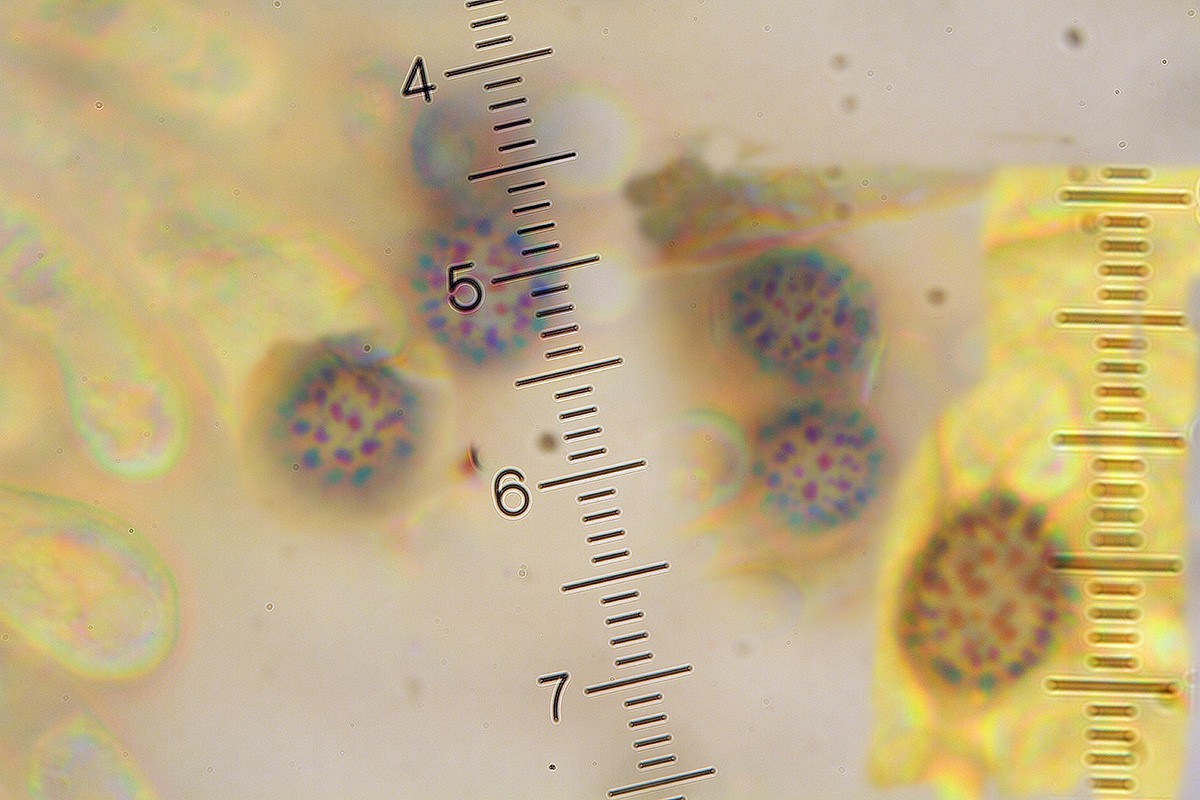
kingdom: Fungi
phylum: Basidiomycota
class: Agaricomycetes
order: Russulales
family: Russulaceae
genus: Russula
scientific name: Russula emeticicolor
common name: giftrød skørhat
